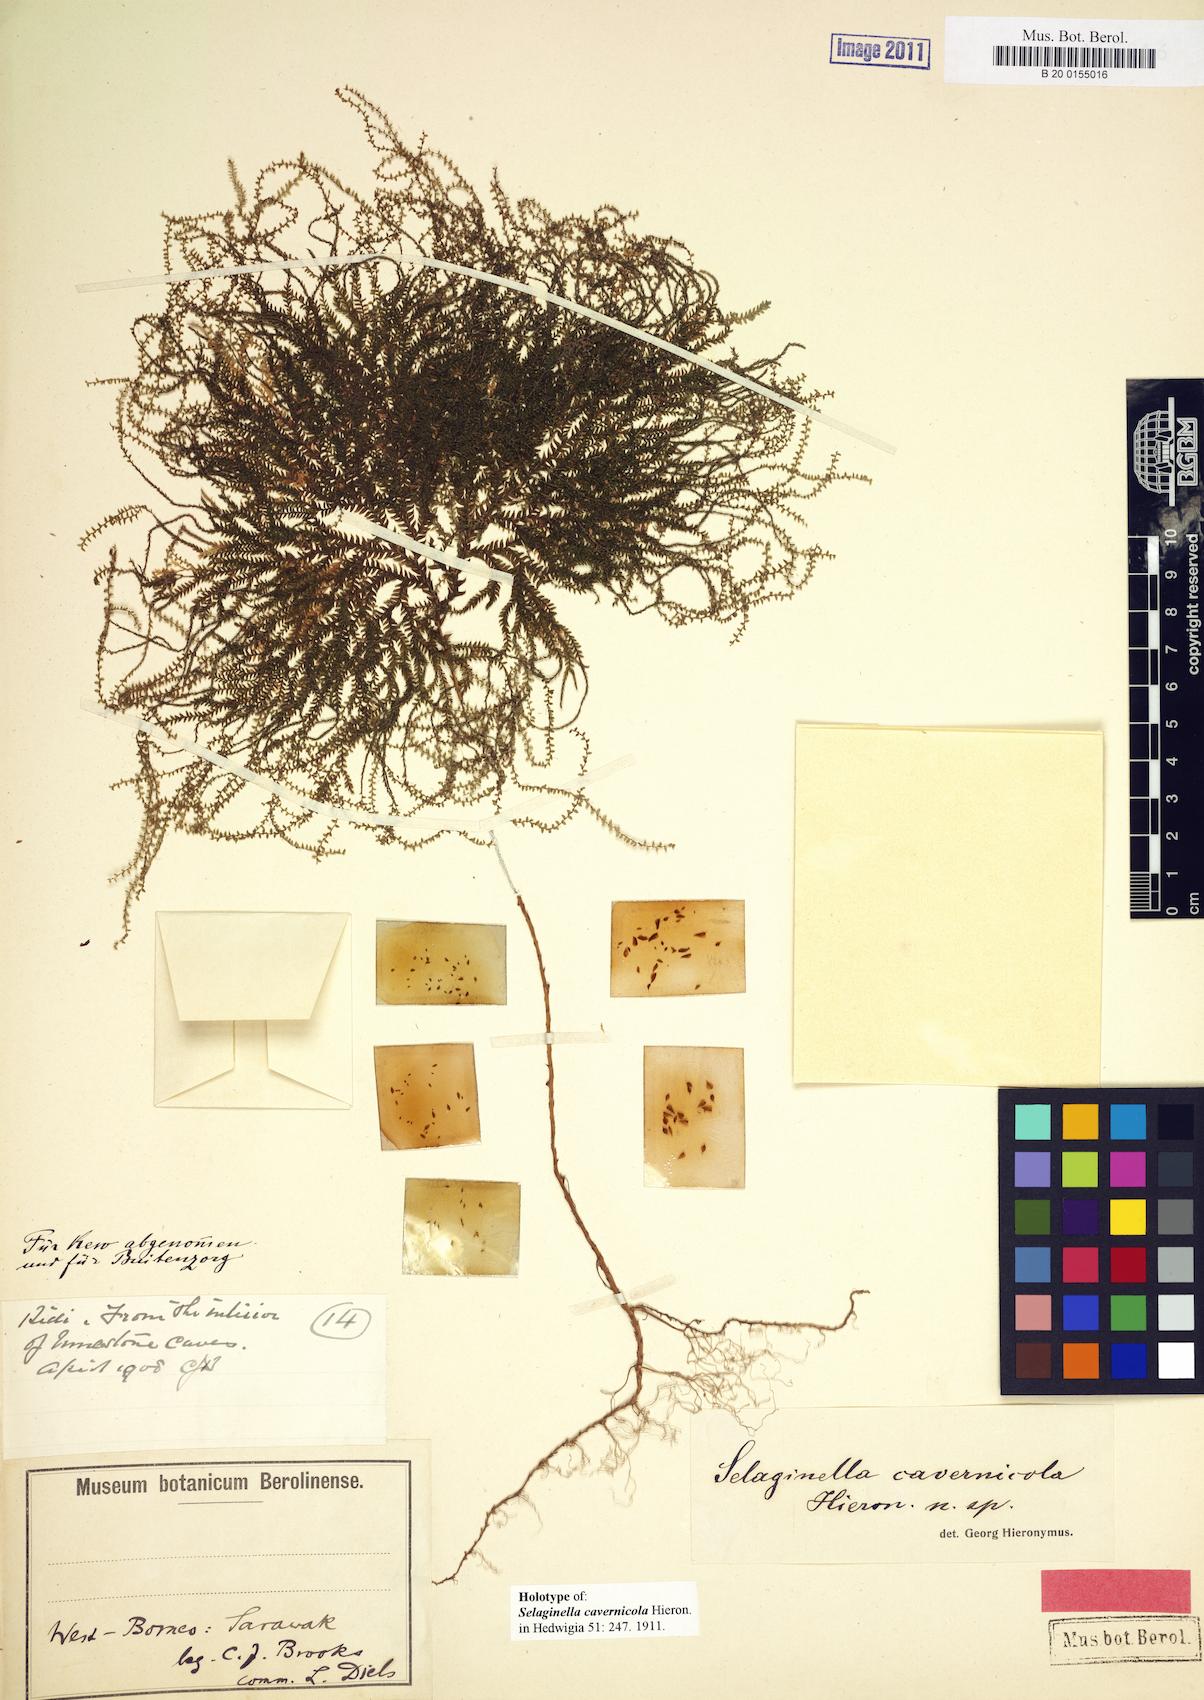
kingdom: Plantae
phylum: Tracheophyta
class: Lycopodiopsida
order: Selaginellales
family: Selaginellaceae
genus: Selaginella
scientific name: Selaginella brevipes
